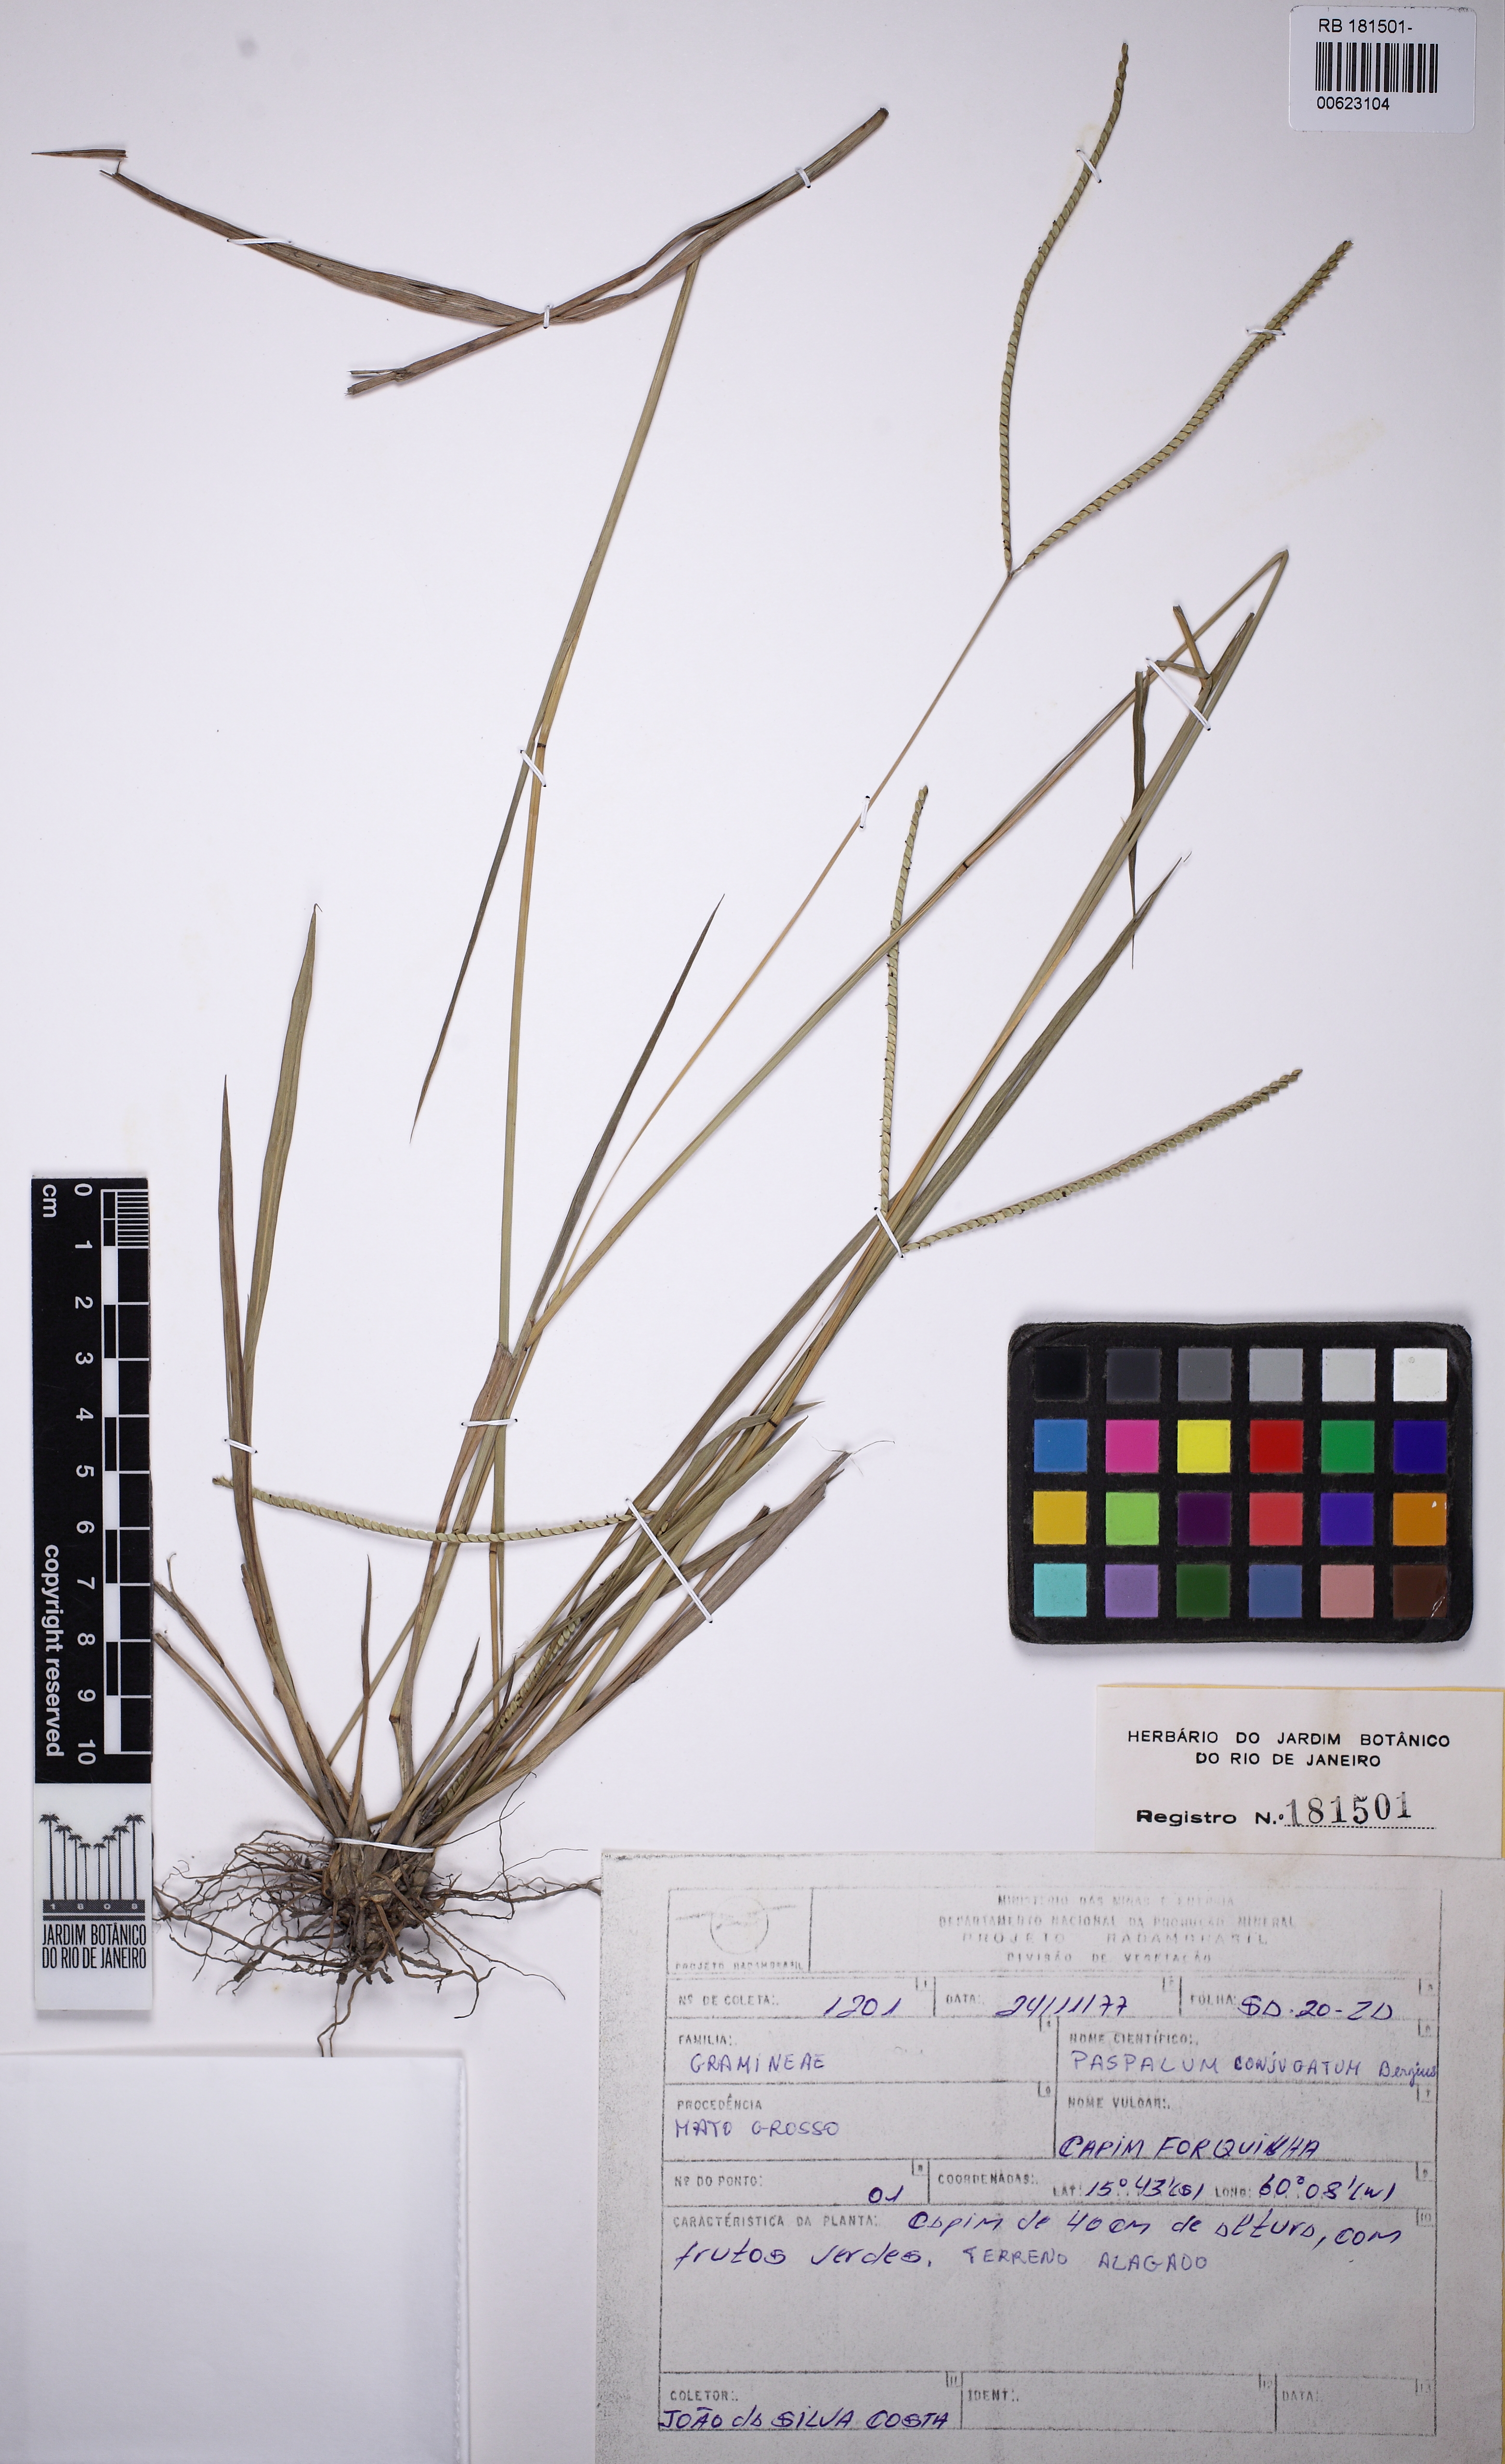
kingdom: Plantae
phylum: Tracheophyta
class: Liliopsida
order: Poales
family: Poaceae
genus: Paspalum
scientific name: Paspalum conjugatum
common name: Hilograss
